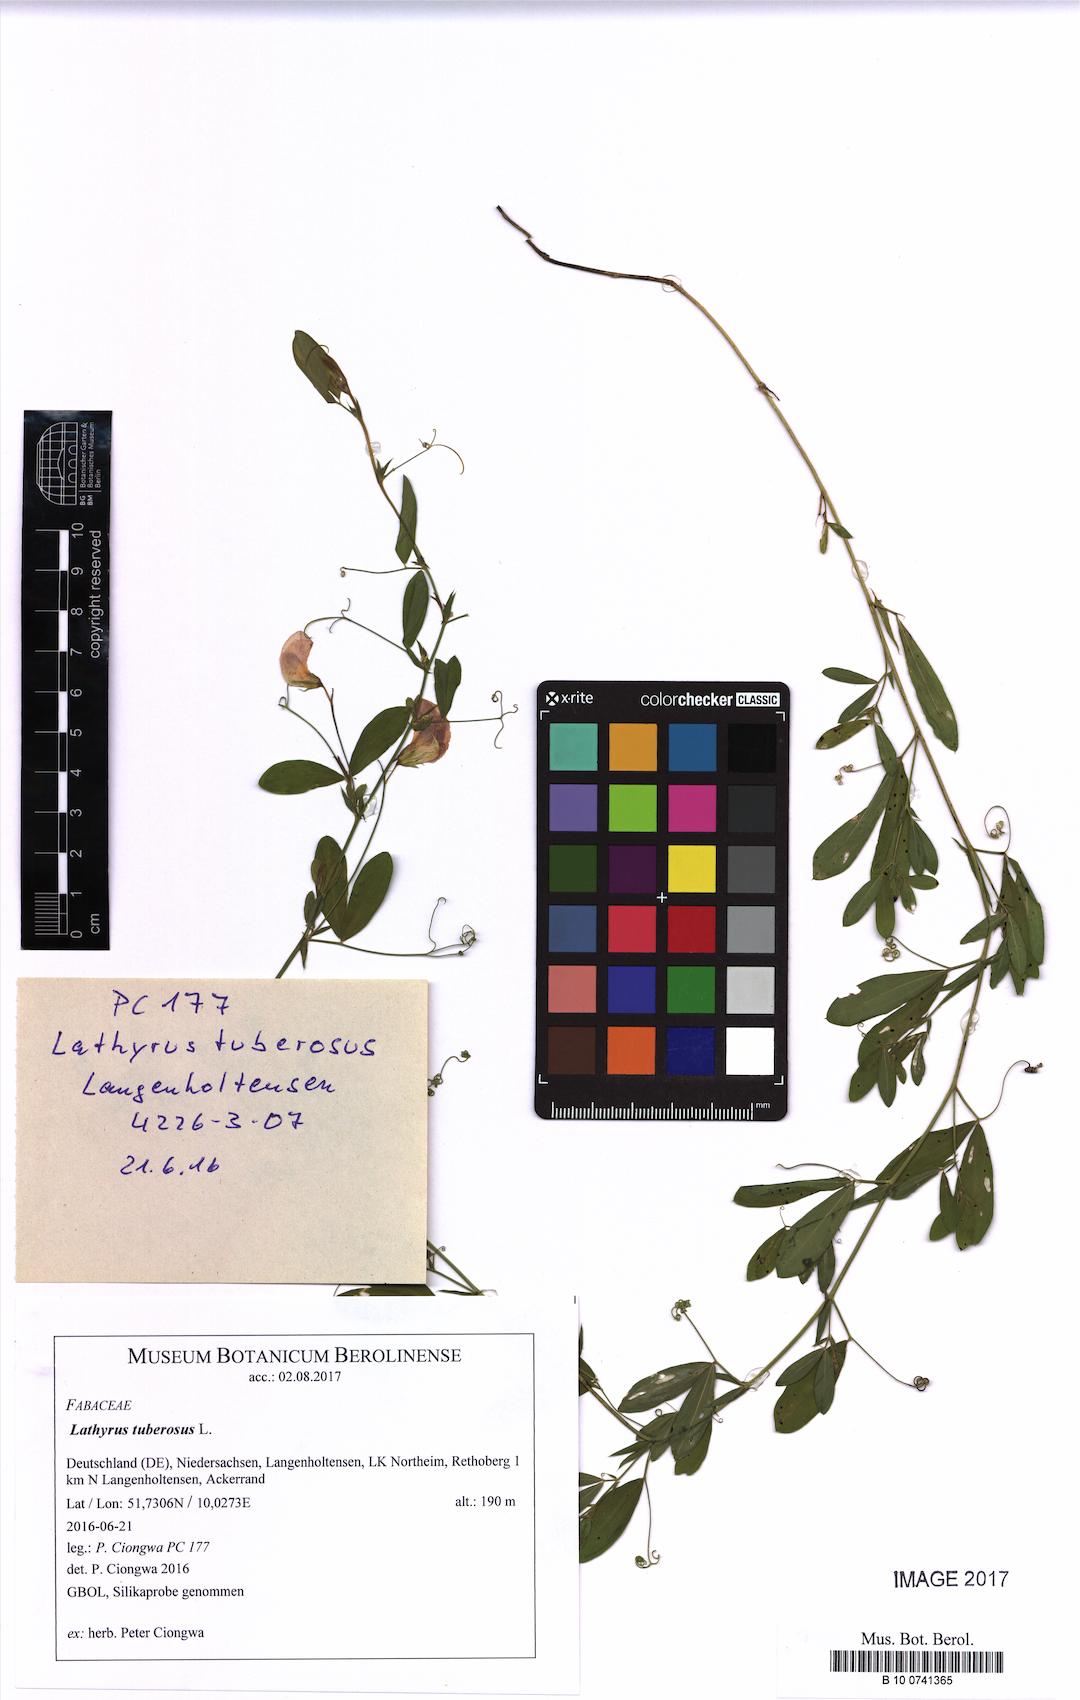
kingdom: Plantae
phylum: Tracheophyta
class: Magnoliopsida
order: Fabales
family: Fabaceae
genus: Lathyrus
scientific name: Lathyrus tuberosus
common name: Tuberous pea
